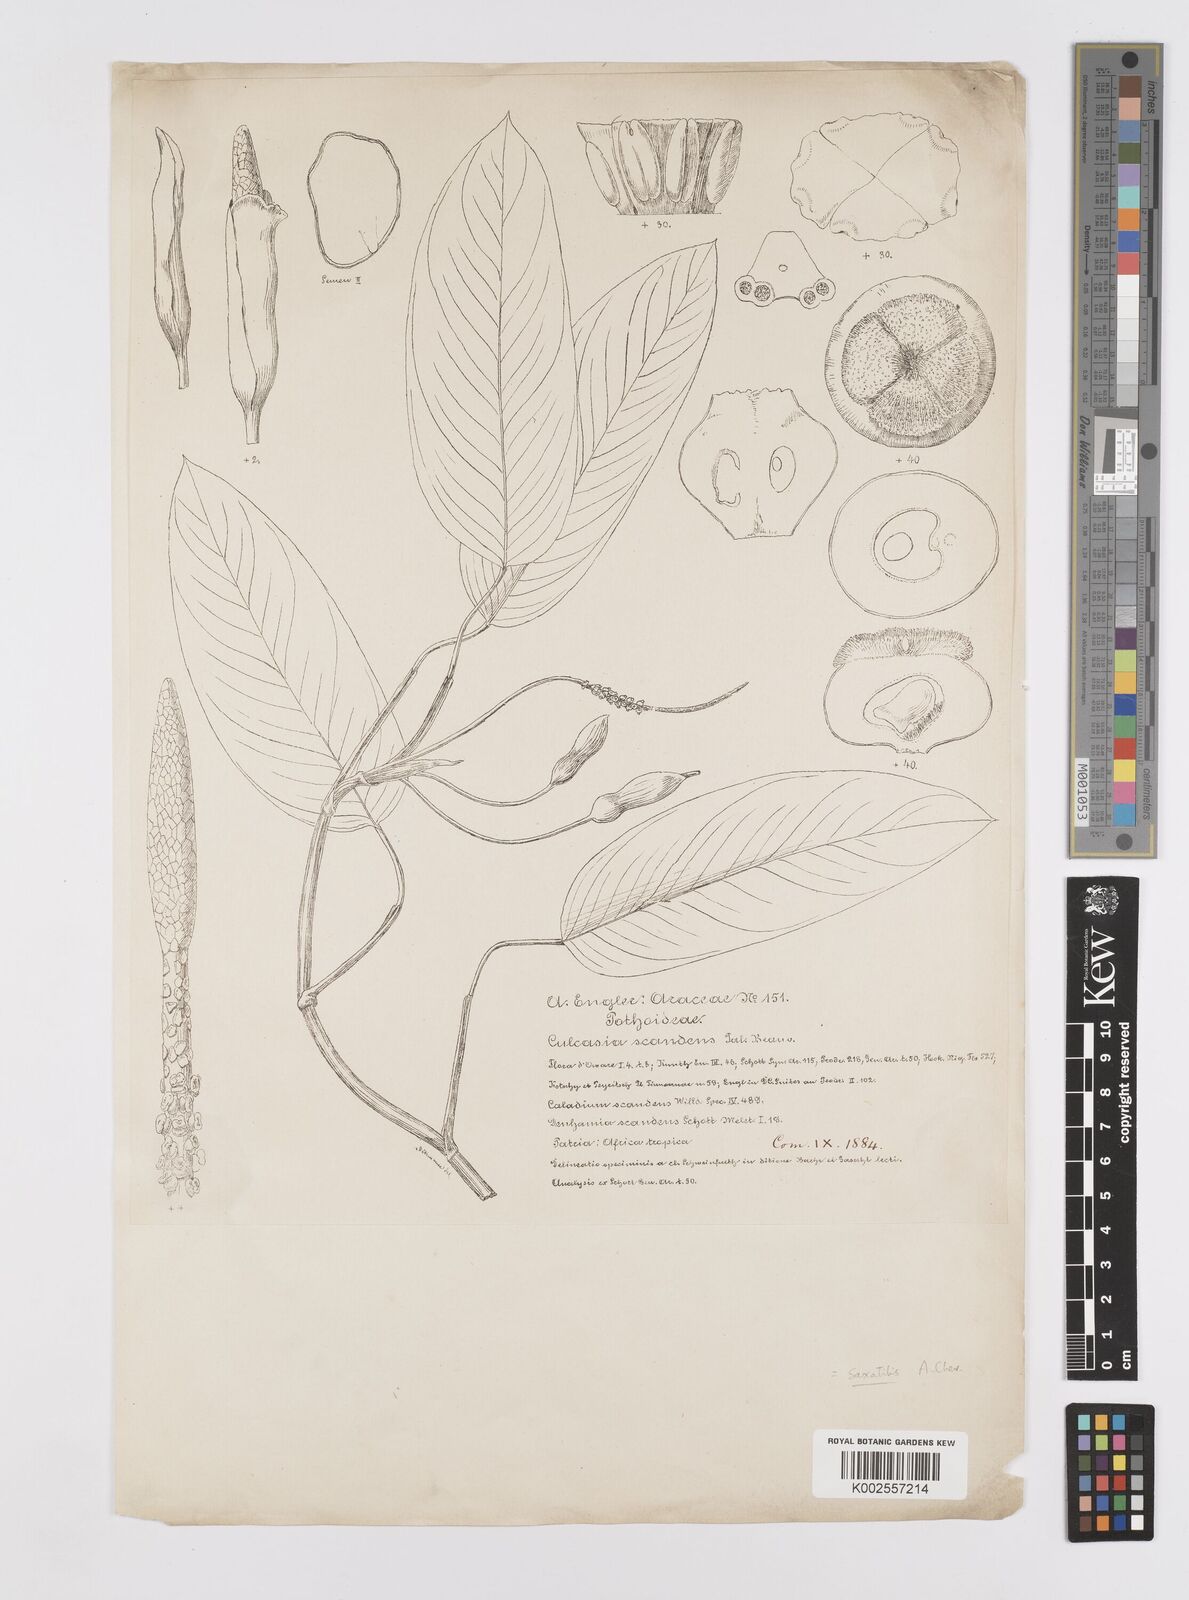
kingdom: Plantae
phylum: Tracheophyta
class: Liliopsida
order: Alismatales
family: Araceae
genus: Culcasia
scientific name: Culcasia scandens
